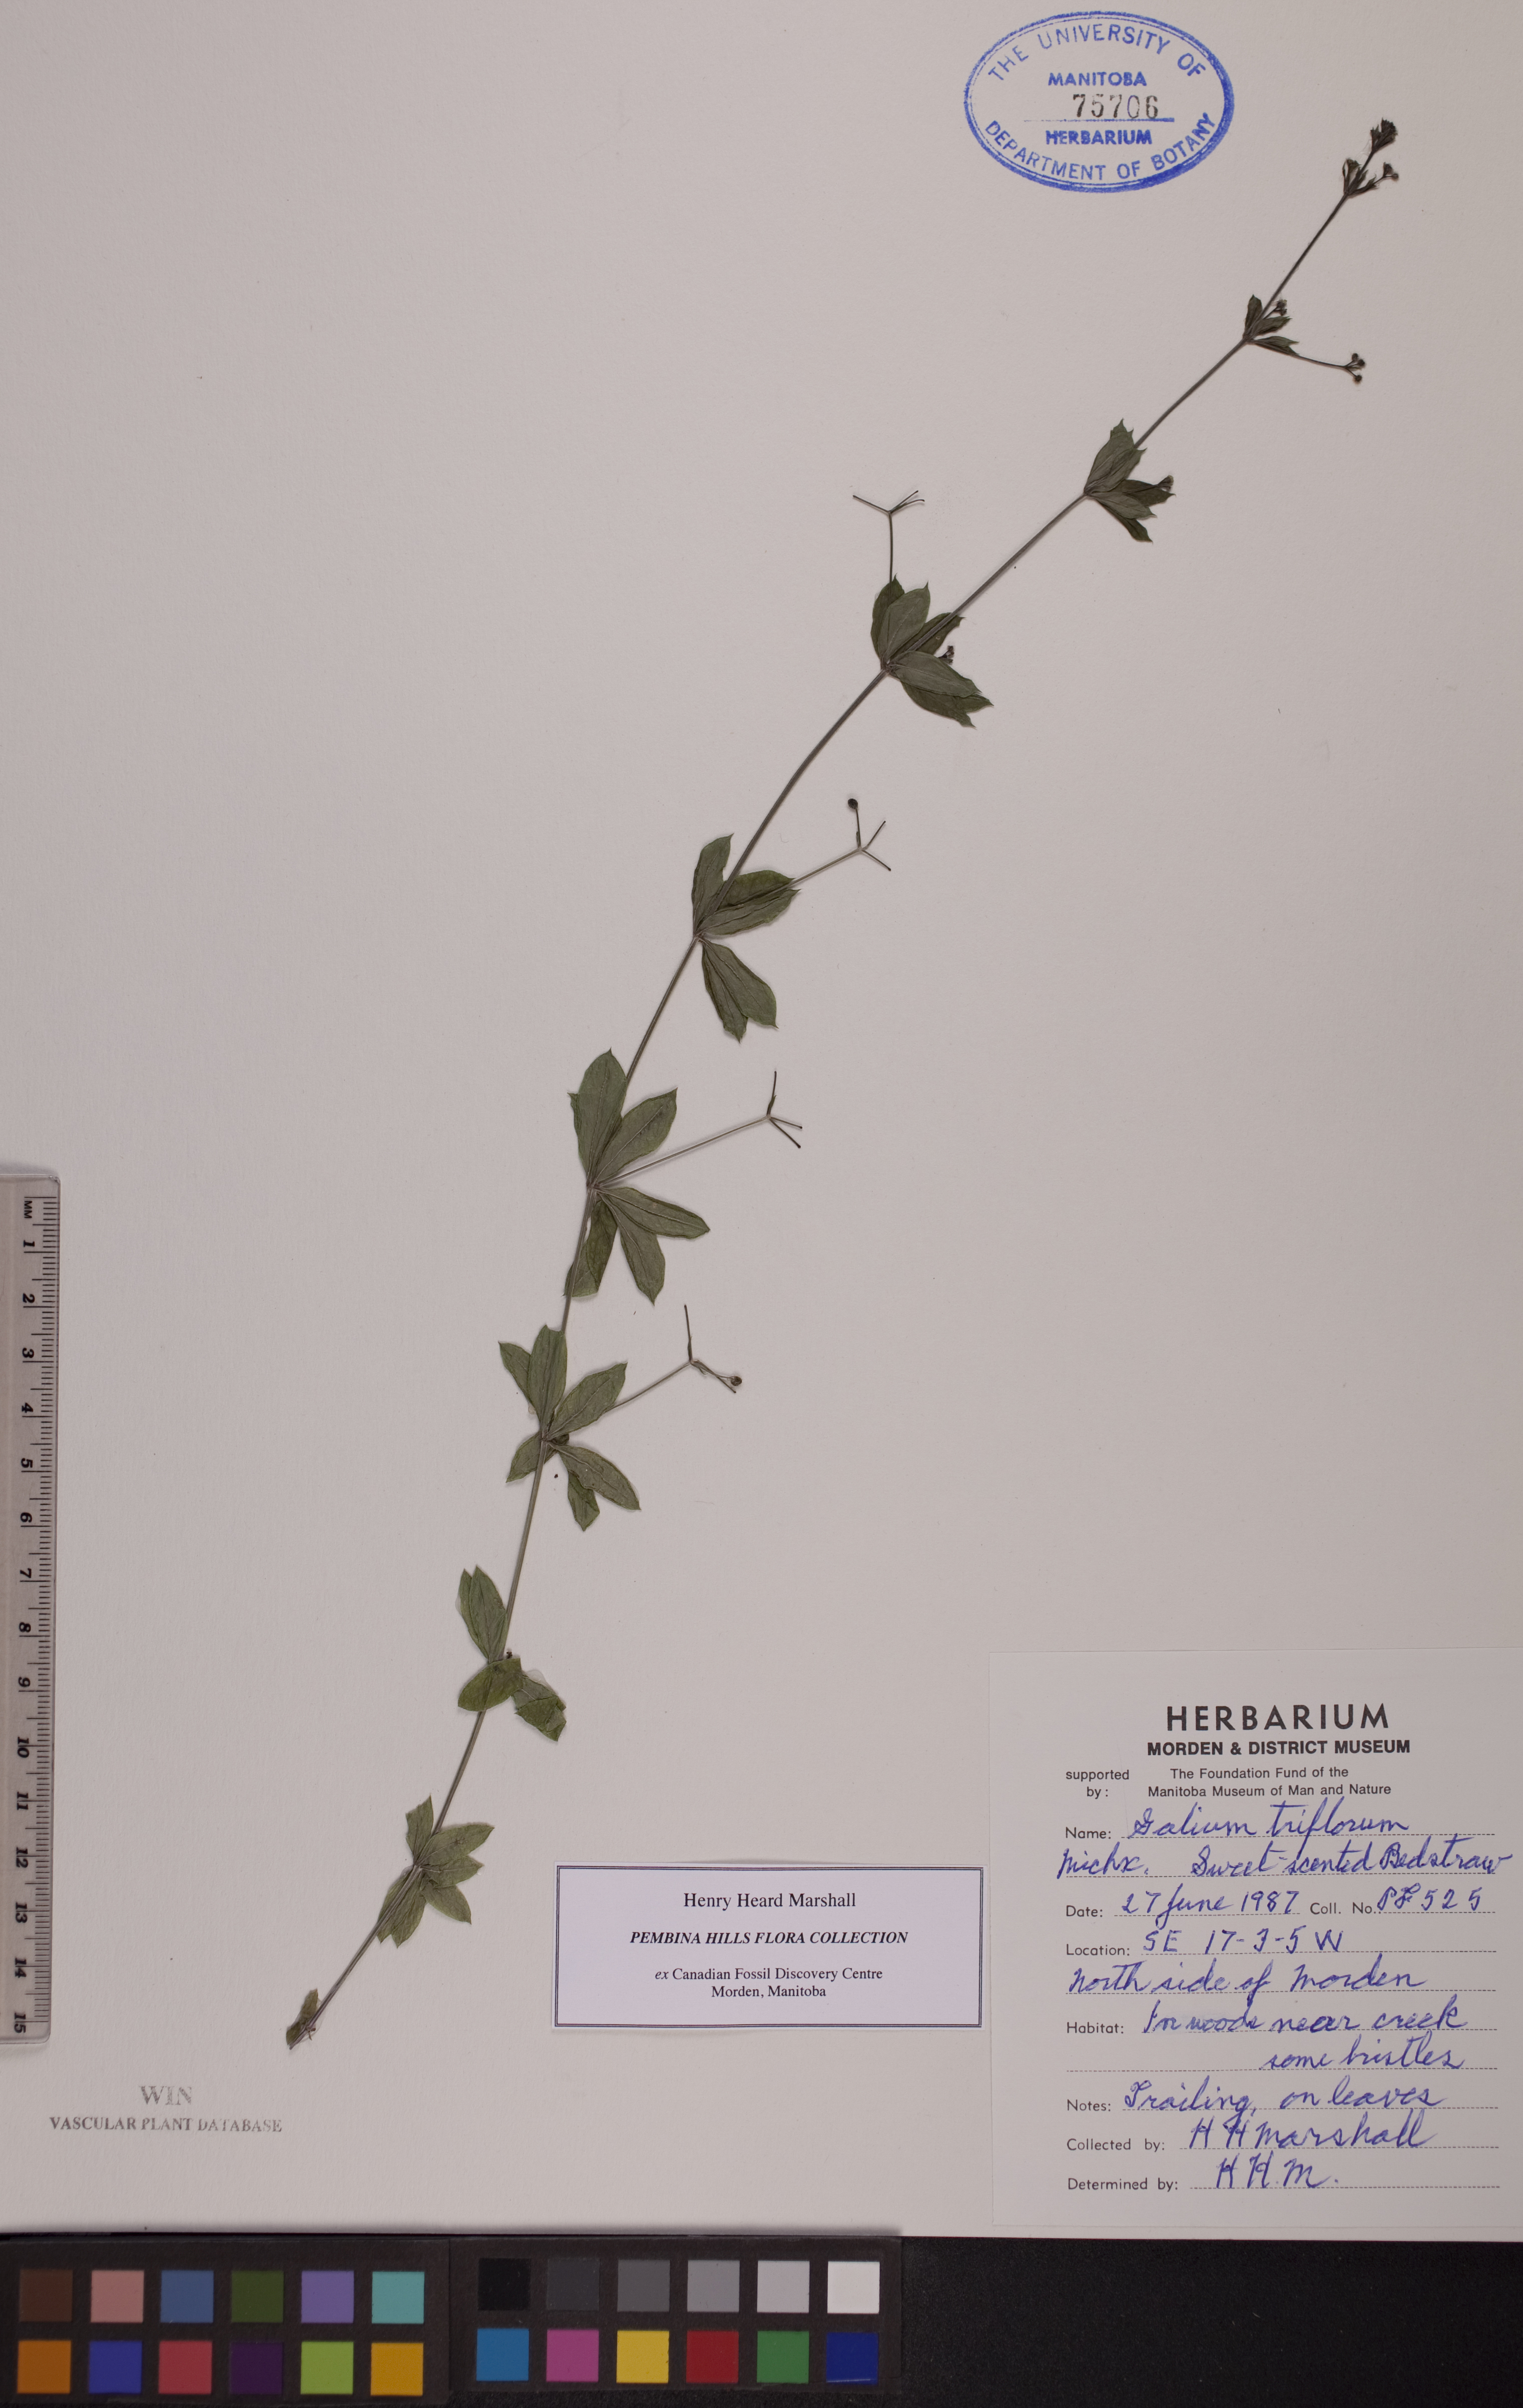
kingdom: Plantae
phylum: Tracheophyta
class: Magnoliopsida
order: Gentianales
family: Rubiaceae
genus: Galium
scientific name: Galium triflorum
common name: Fragrant bedstraw
